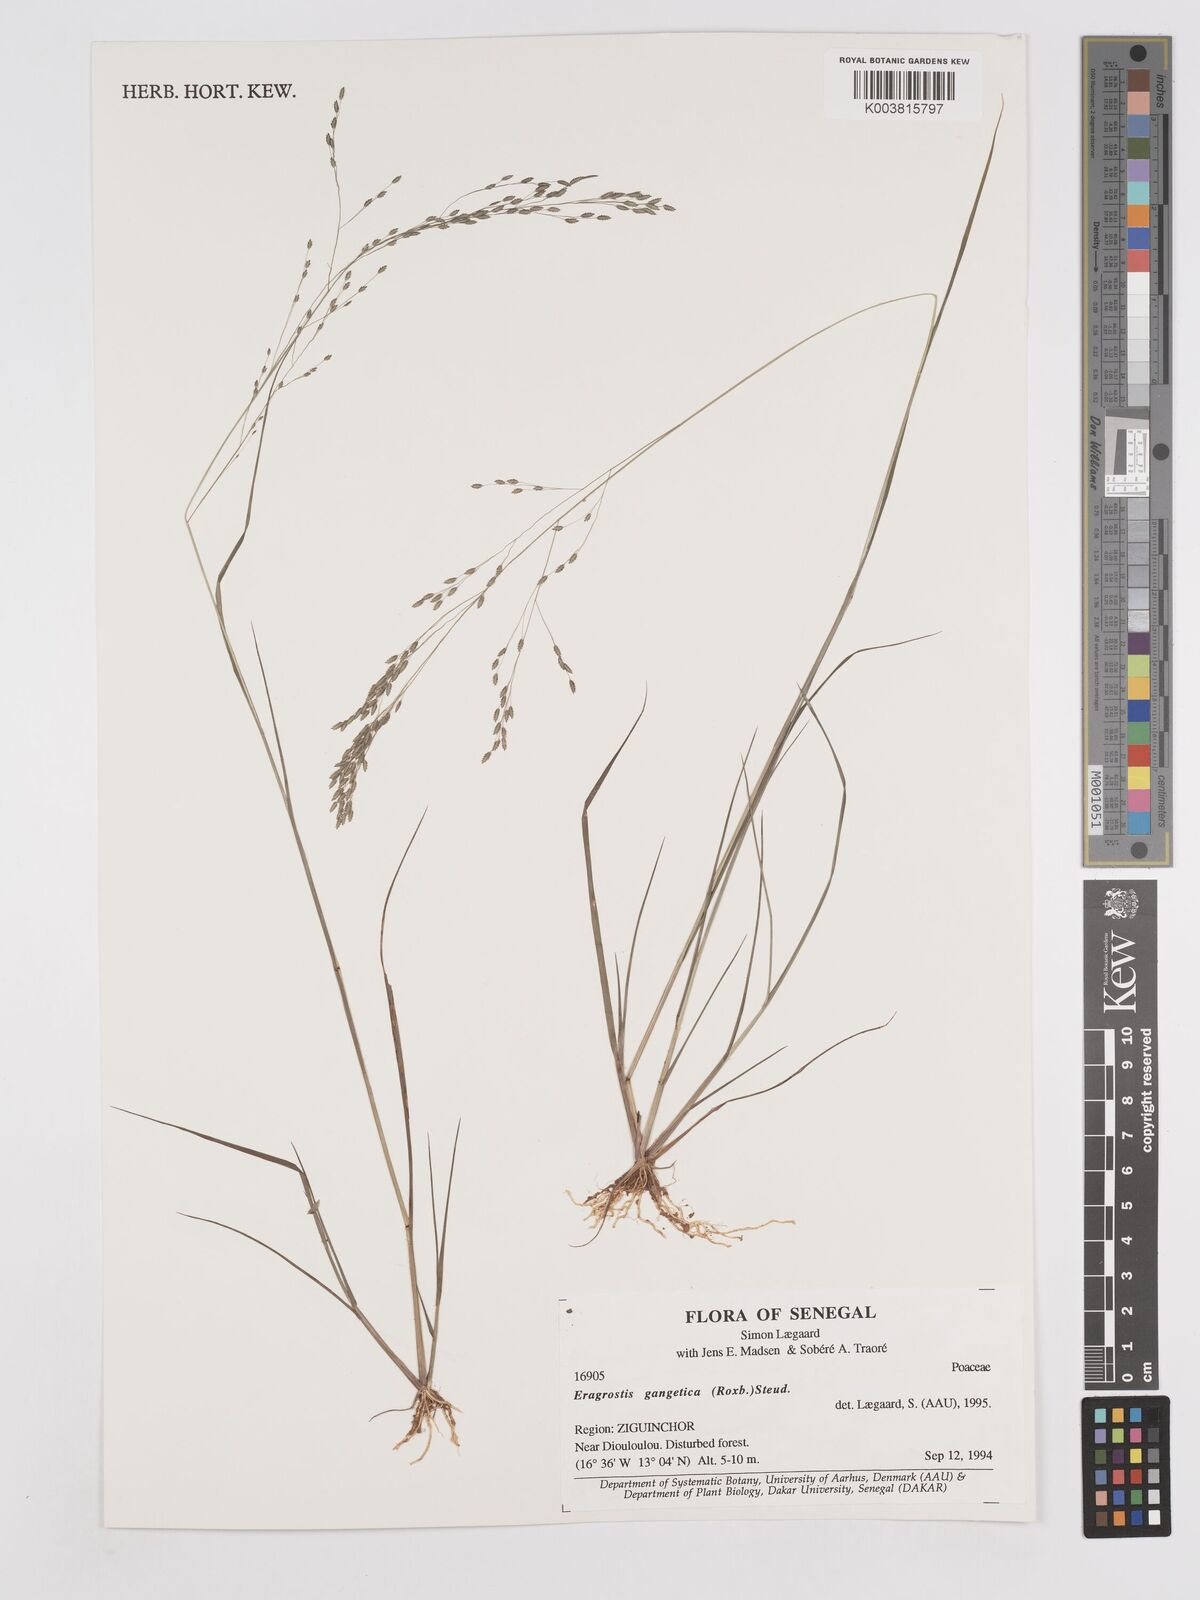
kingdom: Plantae
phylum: Tracheophyta
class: Liliopsida
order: Poales
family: Poaceae
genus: Eragrostis
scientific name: Eragrostis gangetica
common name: Slimflower lovegrass
